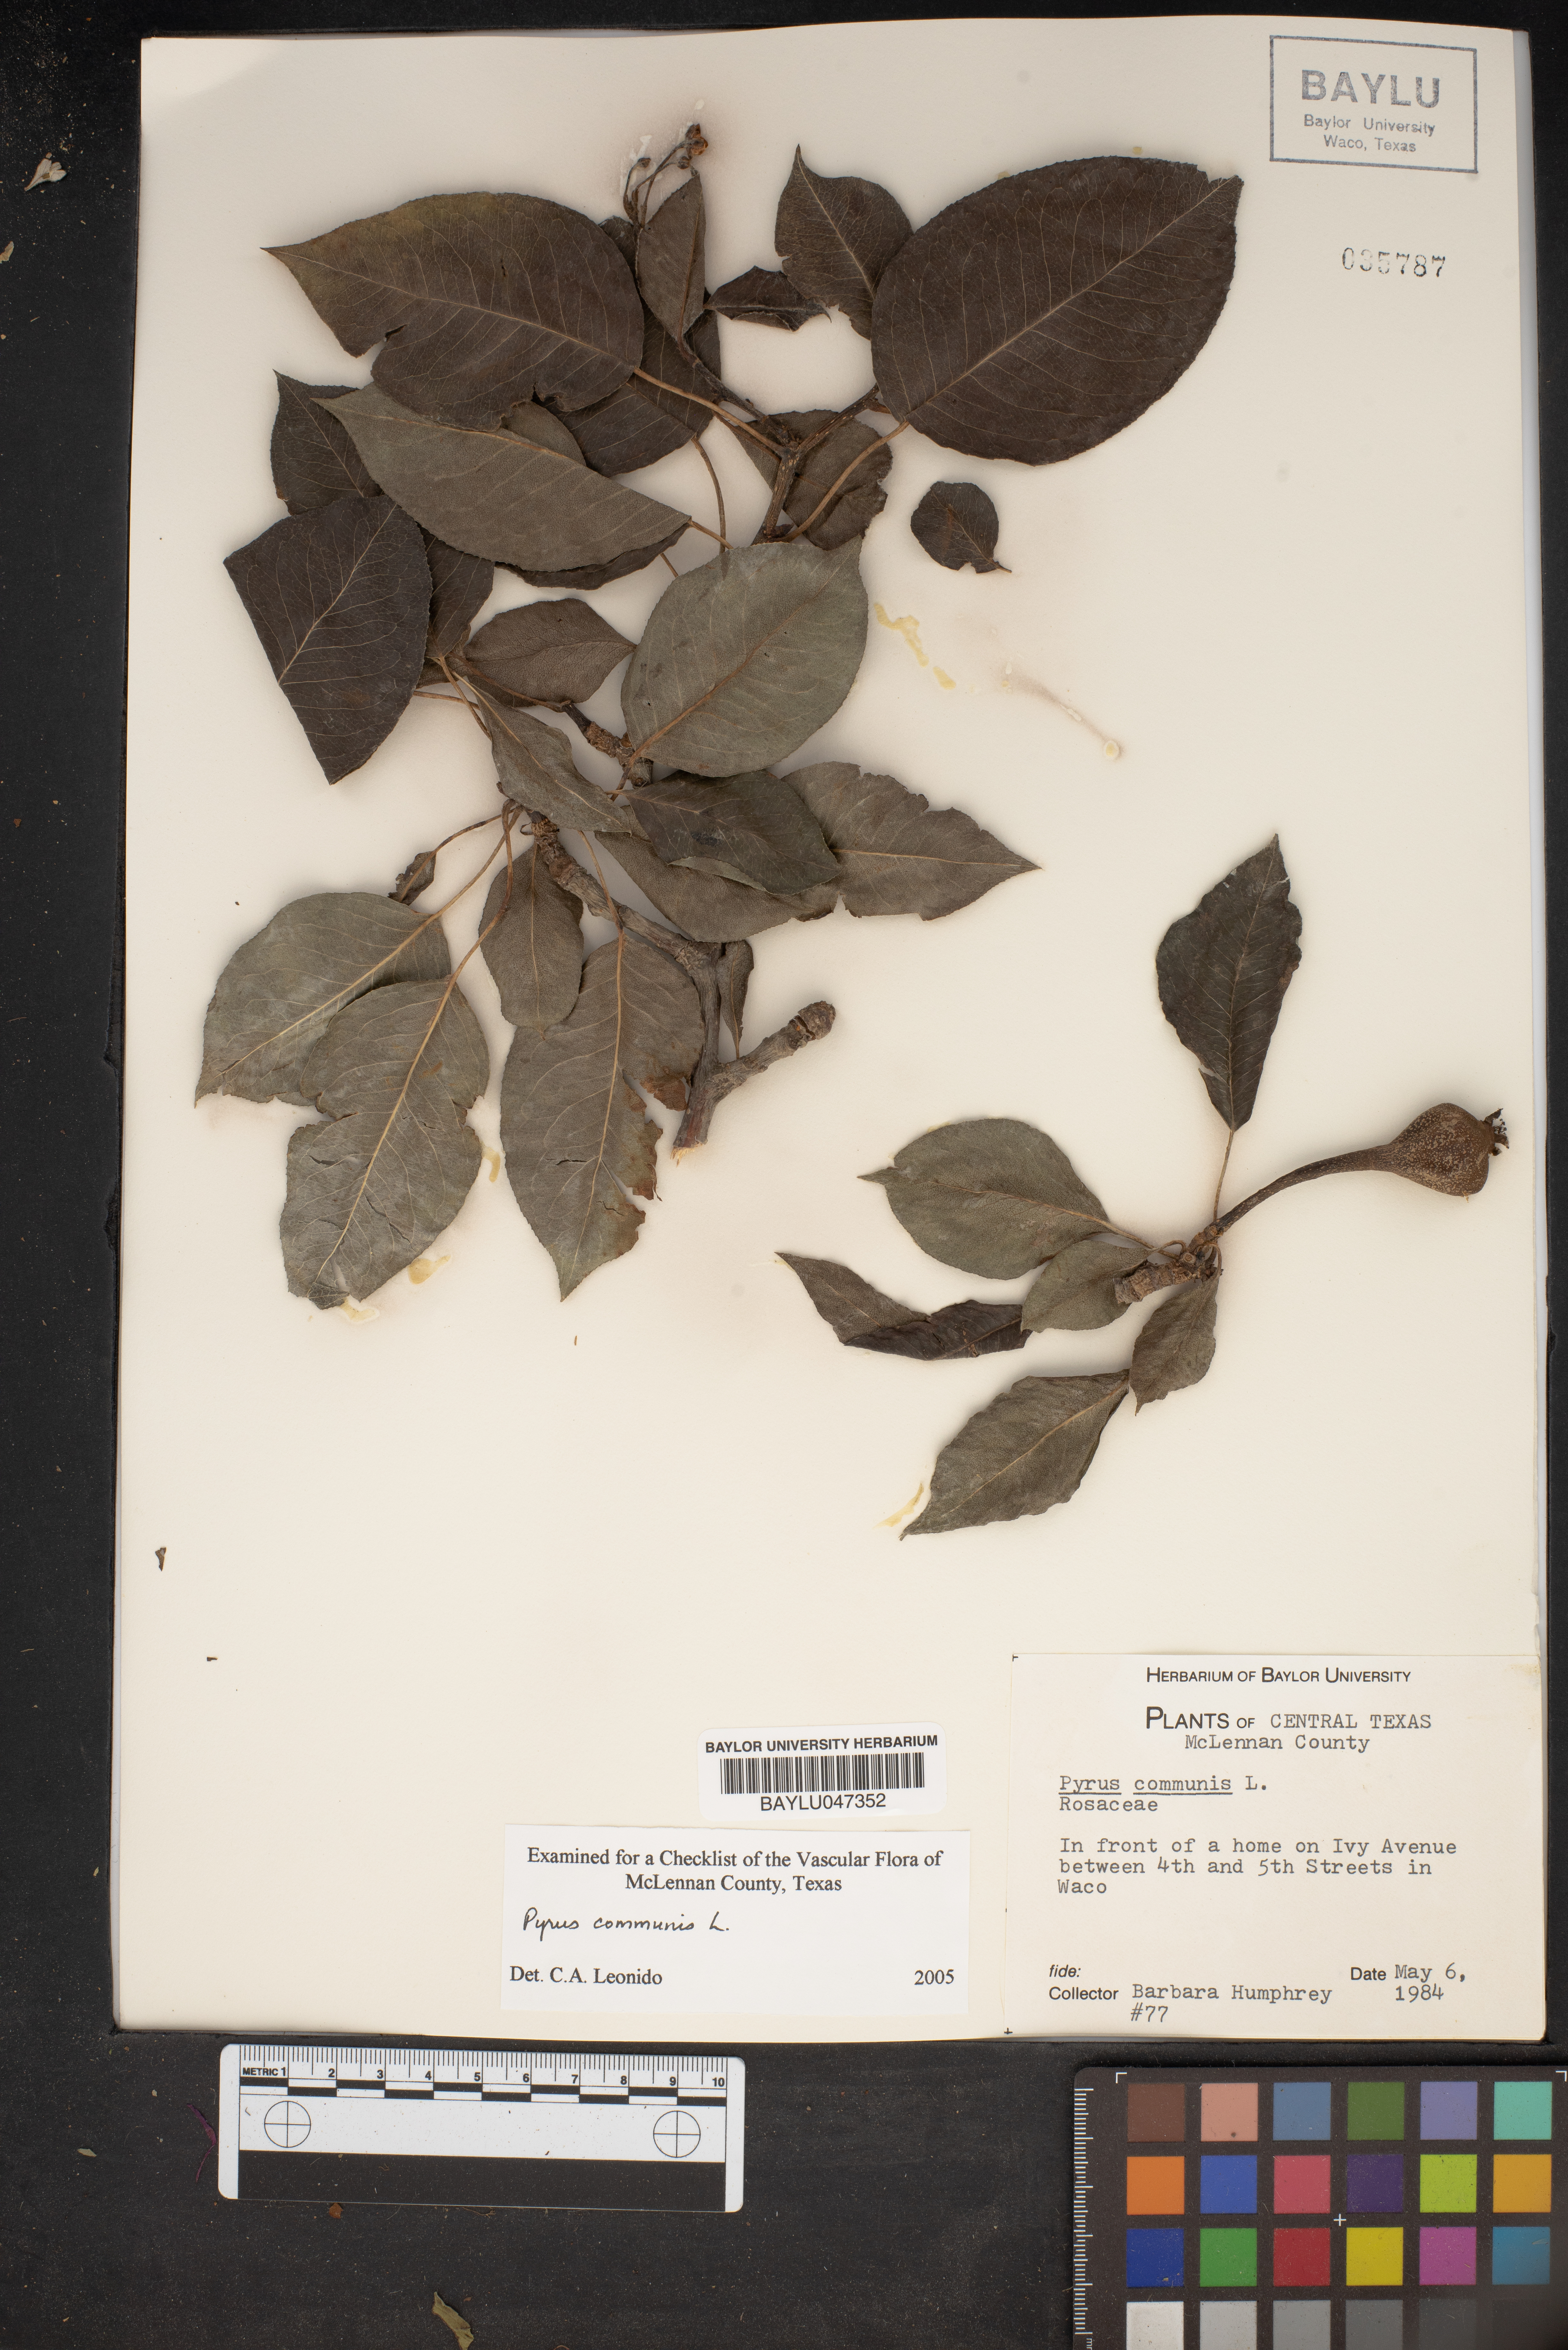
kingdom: Plantae
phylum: Tracheophyta
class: Magnoliopsida
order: Rosales
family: Rosaceae
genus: Pyrus
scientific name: Pyrus communis
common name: Pear
